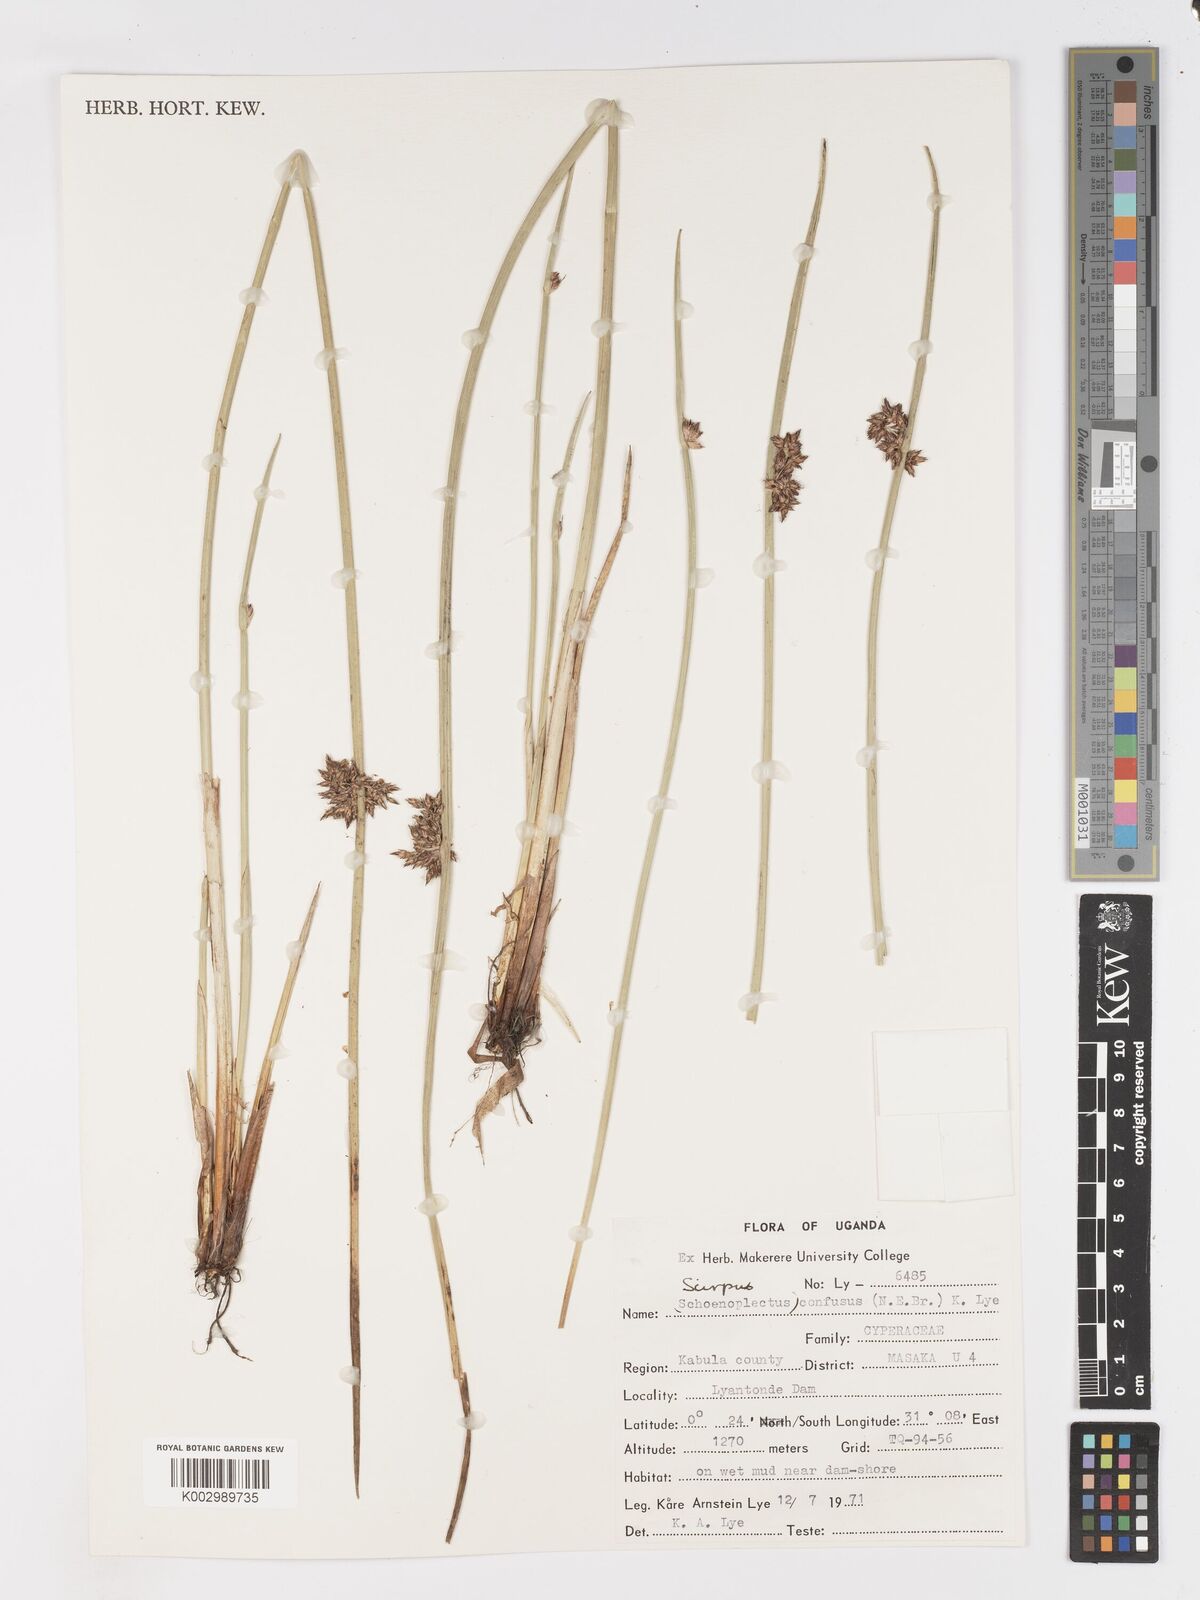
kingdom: Plantae
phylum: Tracheophyta
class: Liliopsida
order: Poales
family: Cyperaceae
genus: Schoenoplectiella
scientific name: Schoenoplectiella confusa
